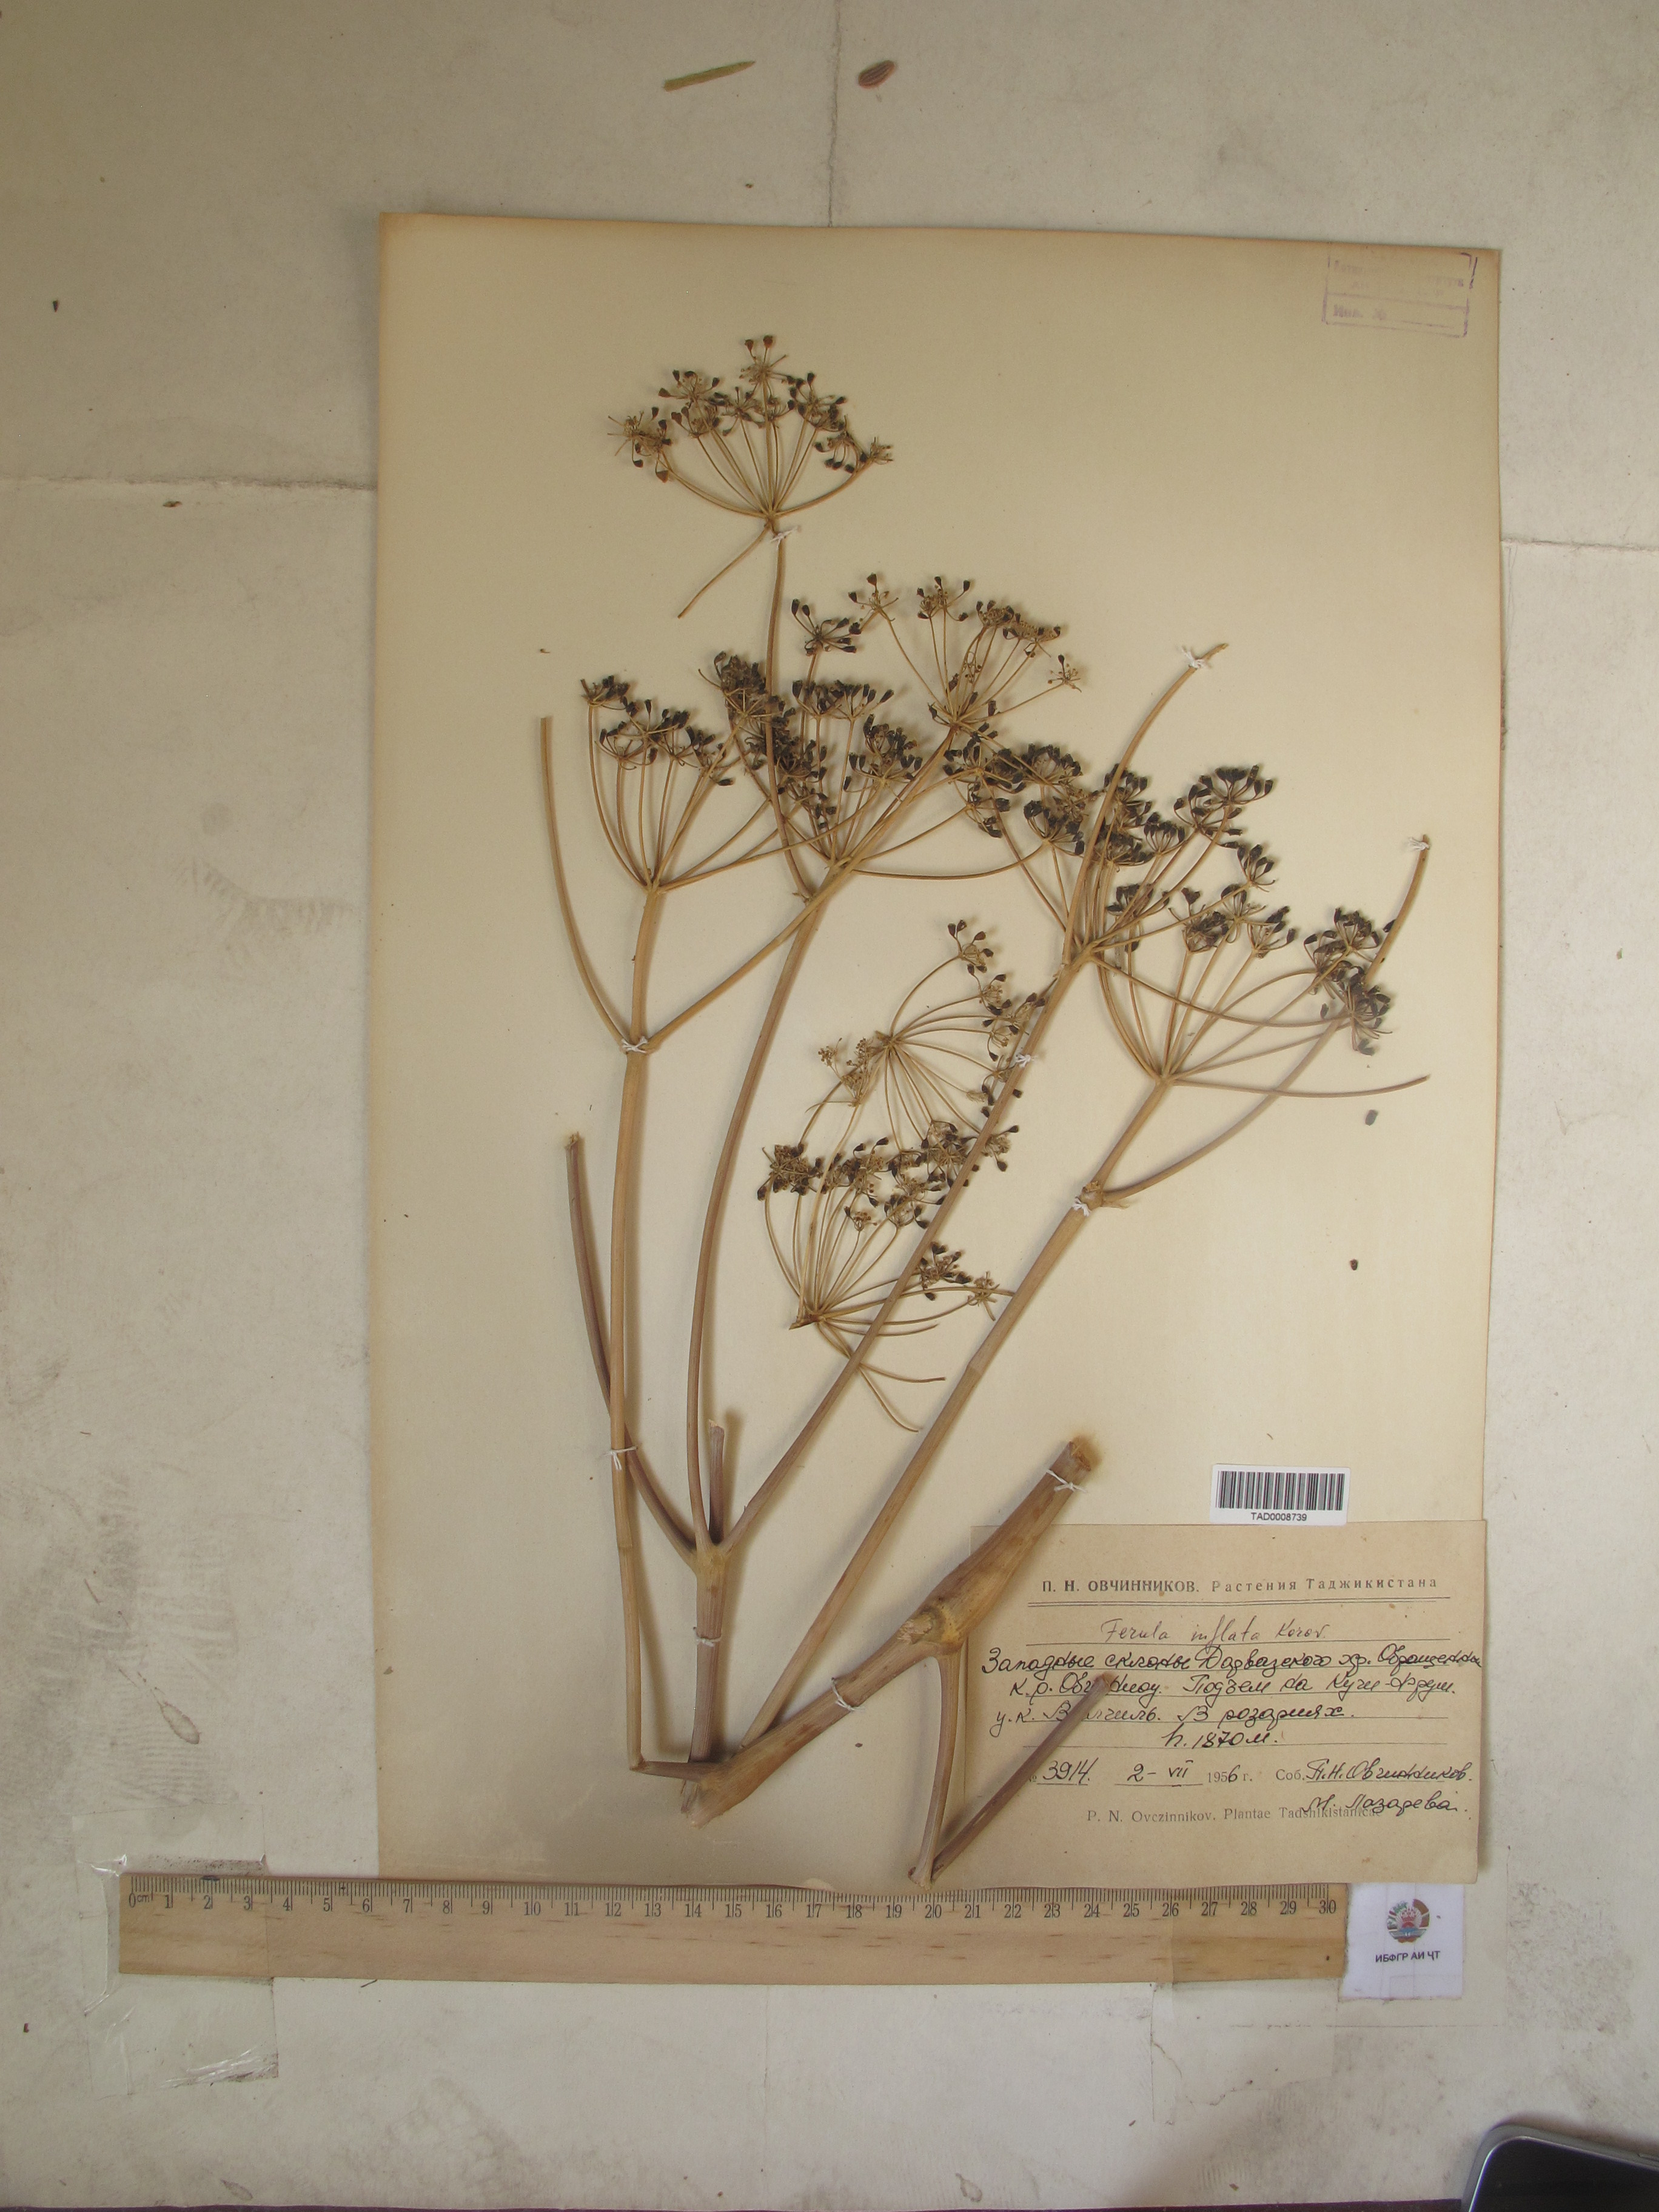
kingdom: Plantae
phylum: Tracheophyta
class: Magnoliopsida
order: Apiales
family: Apiaceae
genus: Ferula
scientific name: Ferula gigantea
